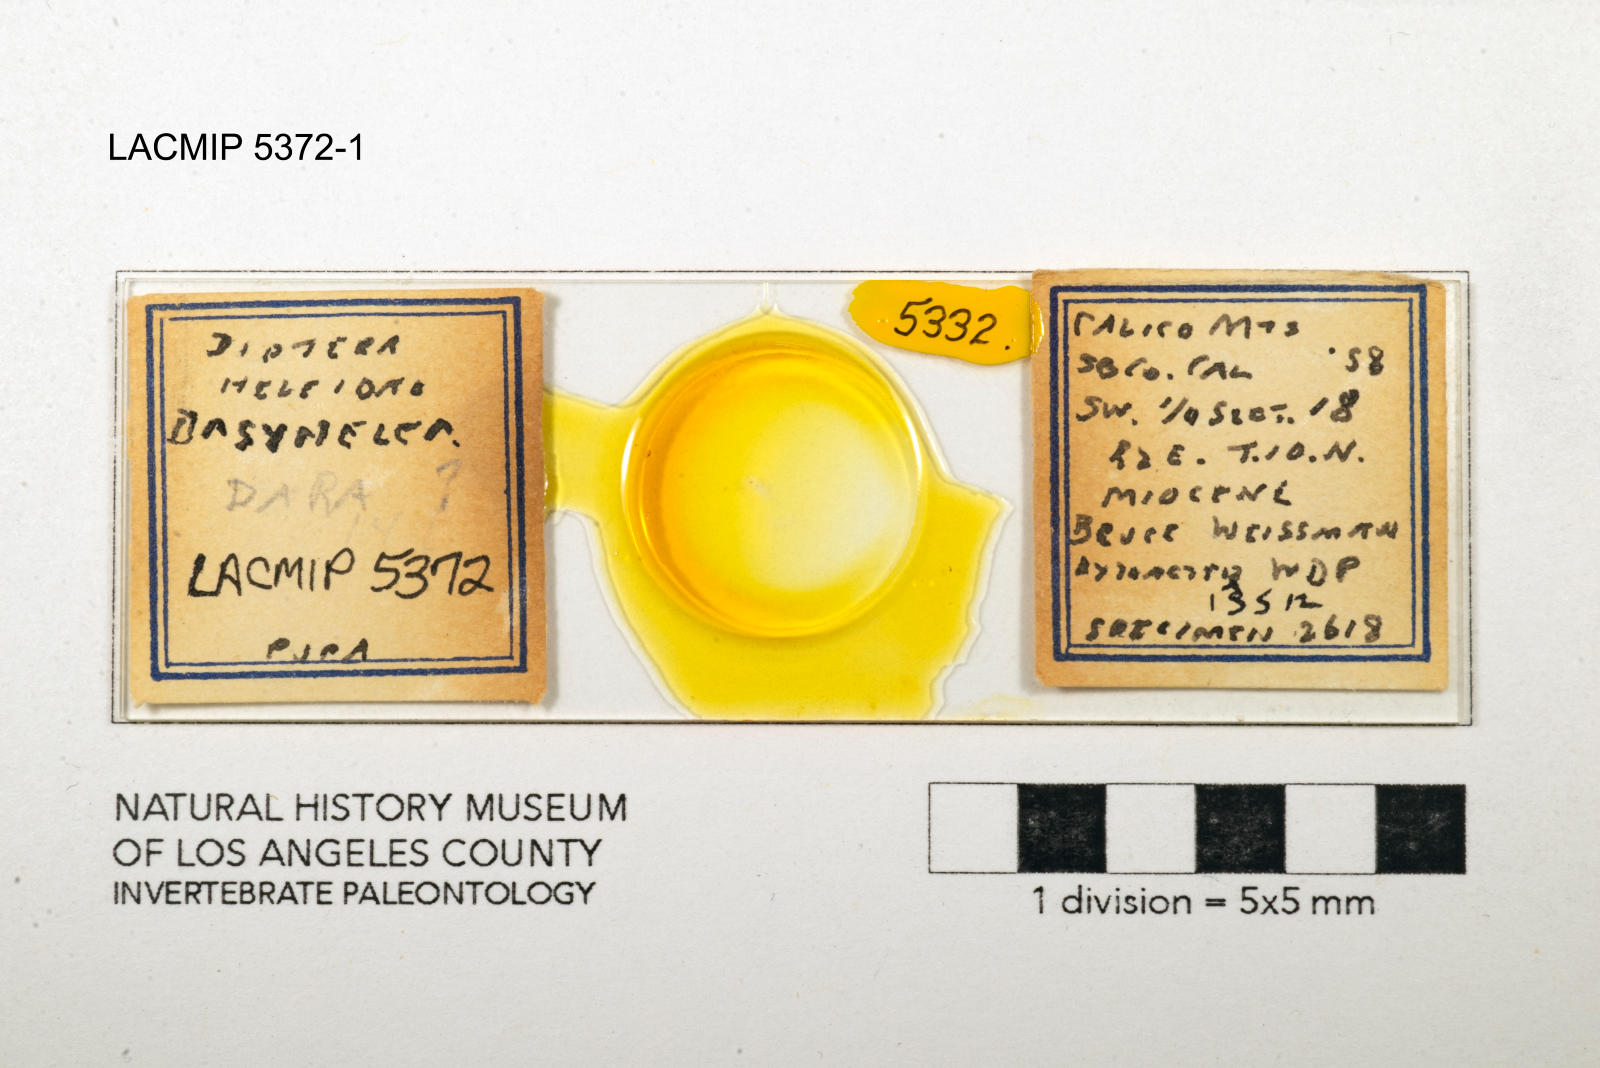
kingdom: Animalia
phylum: Arthropoda
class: Insecta
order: Diptera
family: Ceratopogonidae
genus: Dasyhelea
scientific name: Dasyhelea dara
